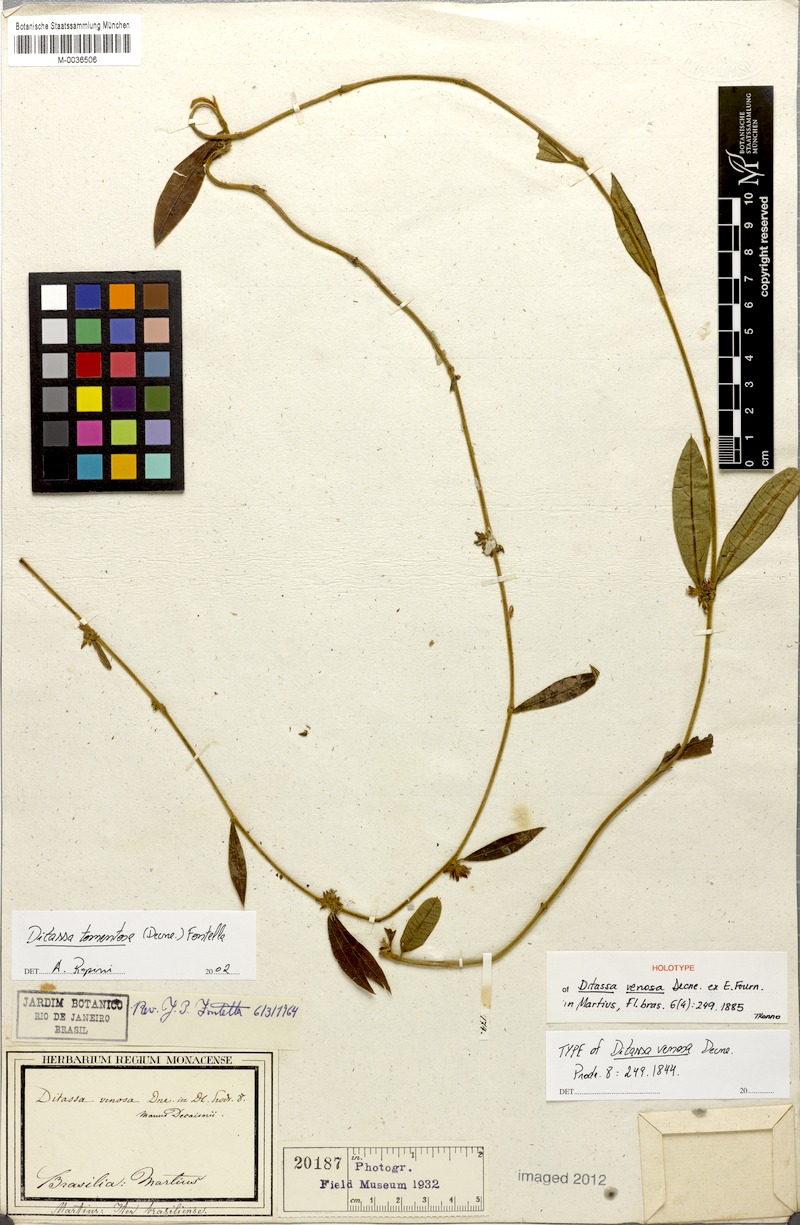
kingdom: Plantae
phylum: Tracheophyta
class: Magnoliopsida
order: Gentianales
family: Apocynaceae
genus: Ditassa
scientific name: Ditassa tomentosa
